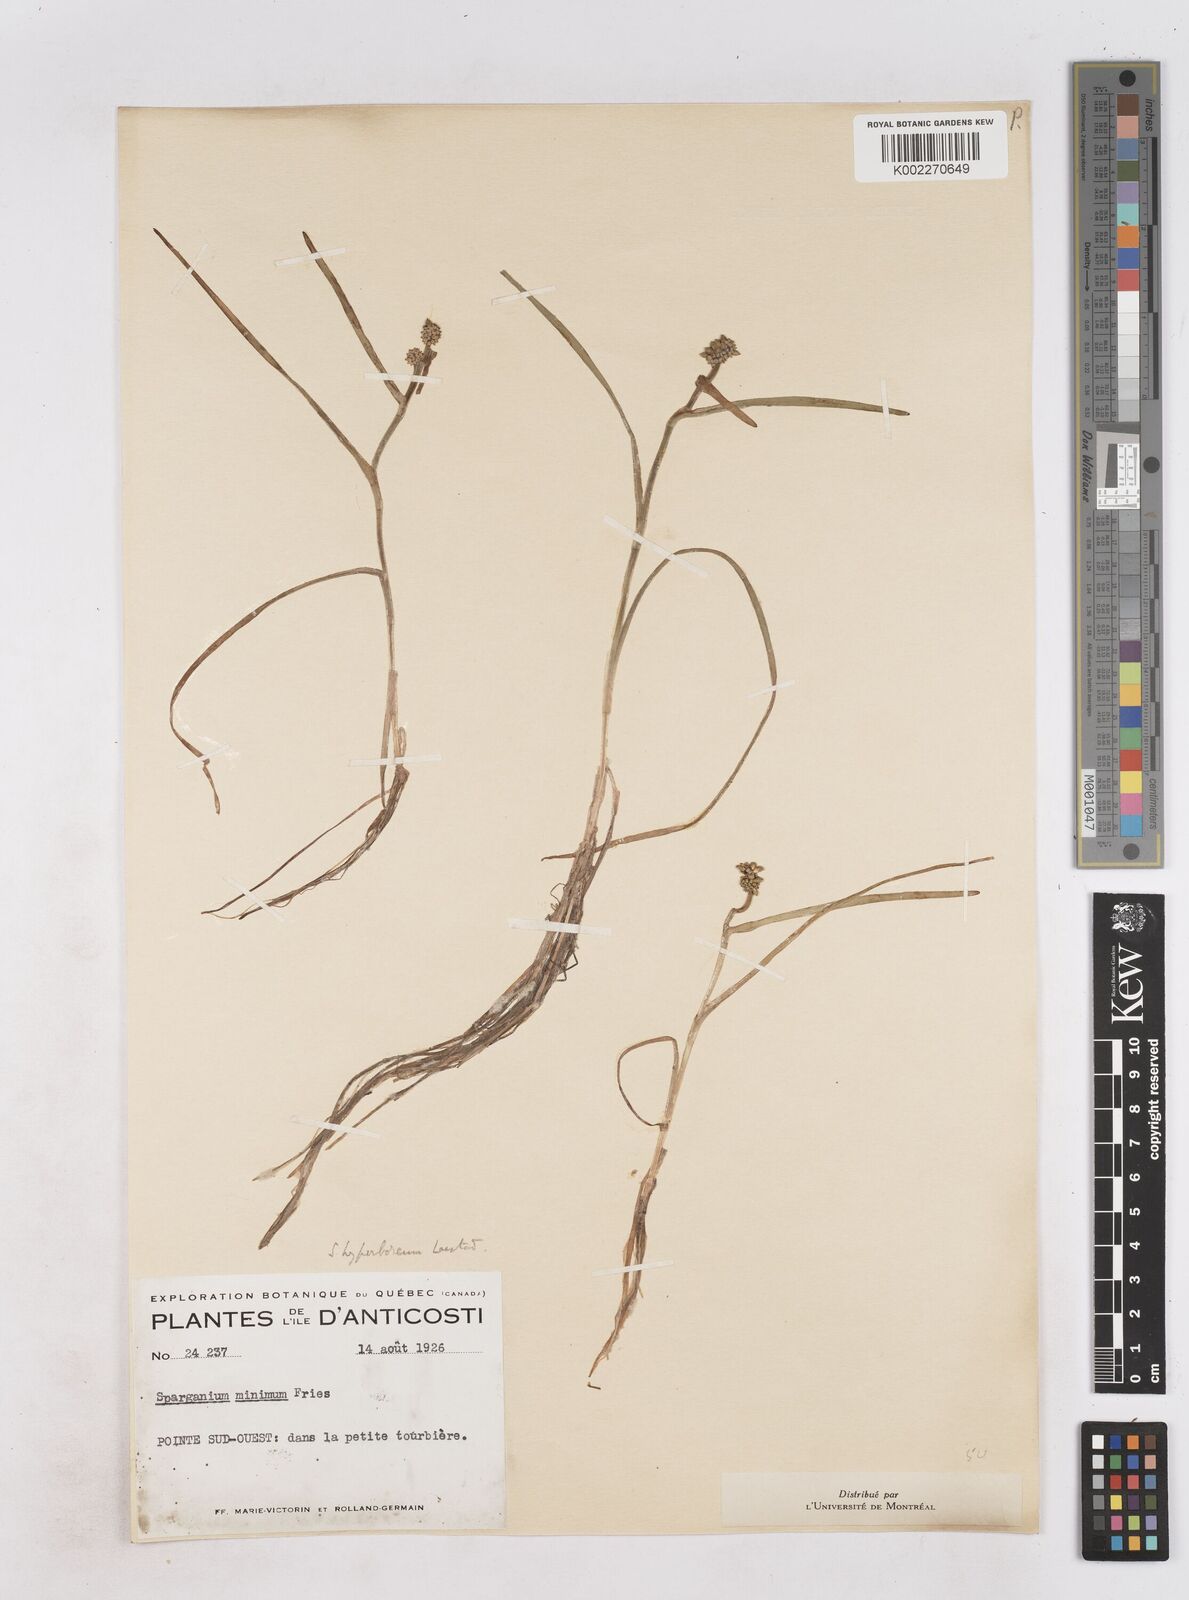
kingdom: Plantae
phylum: Tracheophyta
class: Liliopsida
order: Poales
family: Typhaceae
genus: Sparganium
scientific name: Sparganium hyperboreum
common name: Arctic burreed
